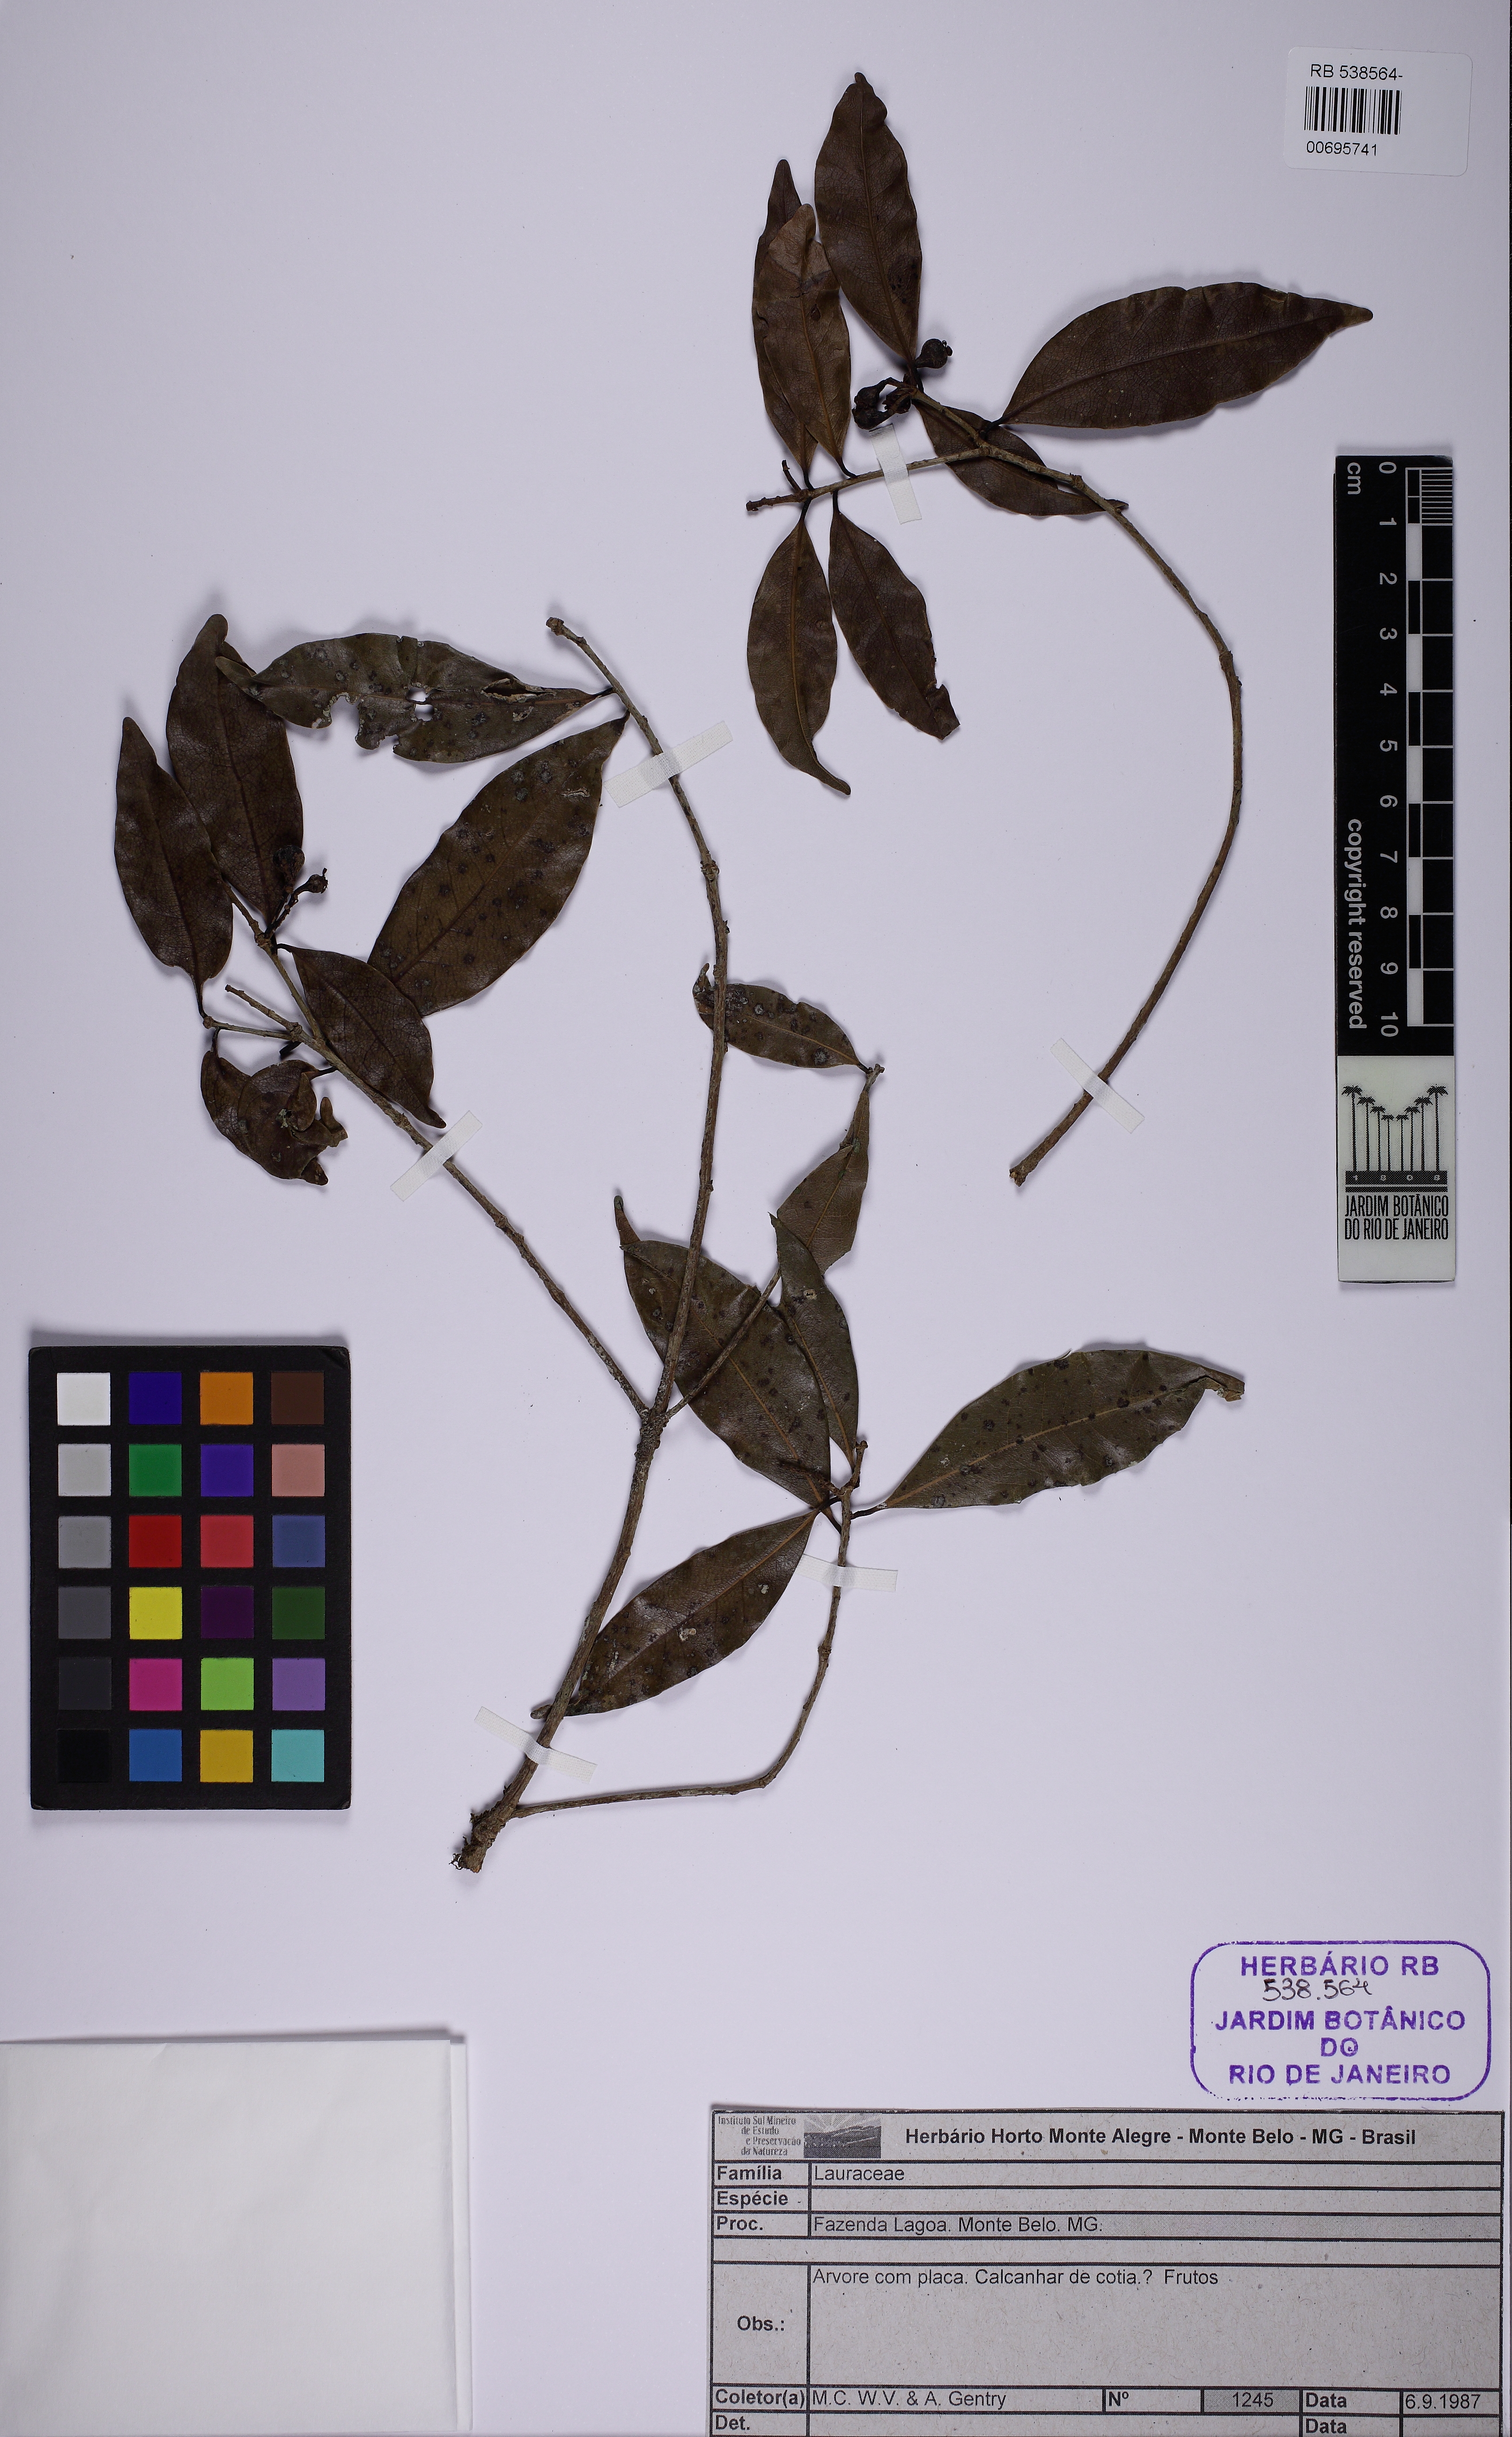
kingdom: Plantae
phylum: Tracheophyta
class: Magnoliopsida
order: Laurales
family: Lauraceae
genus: Ocotea
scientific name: Ocotea
